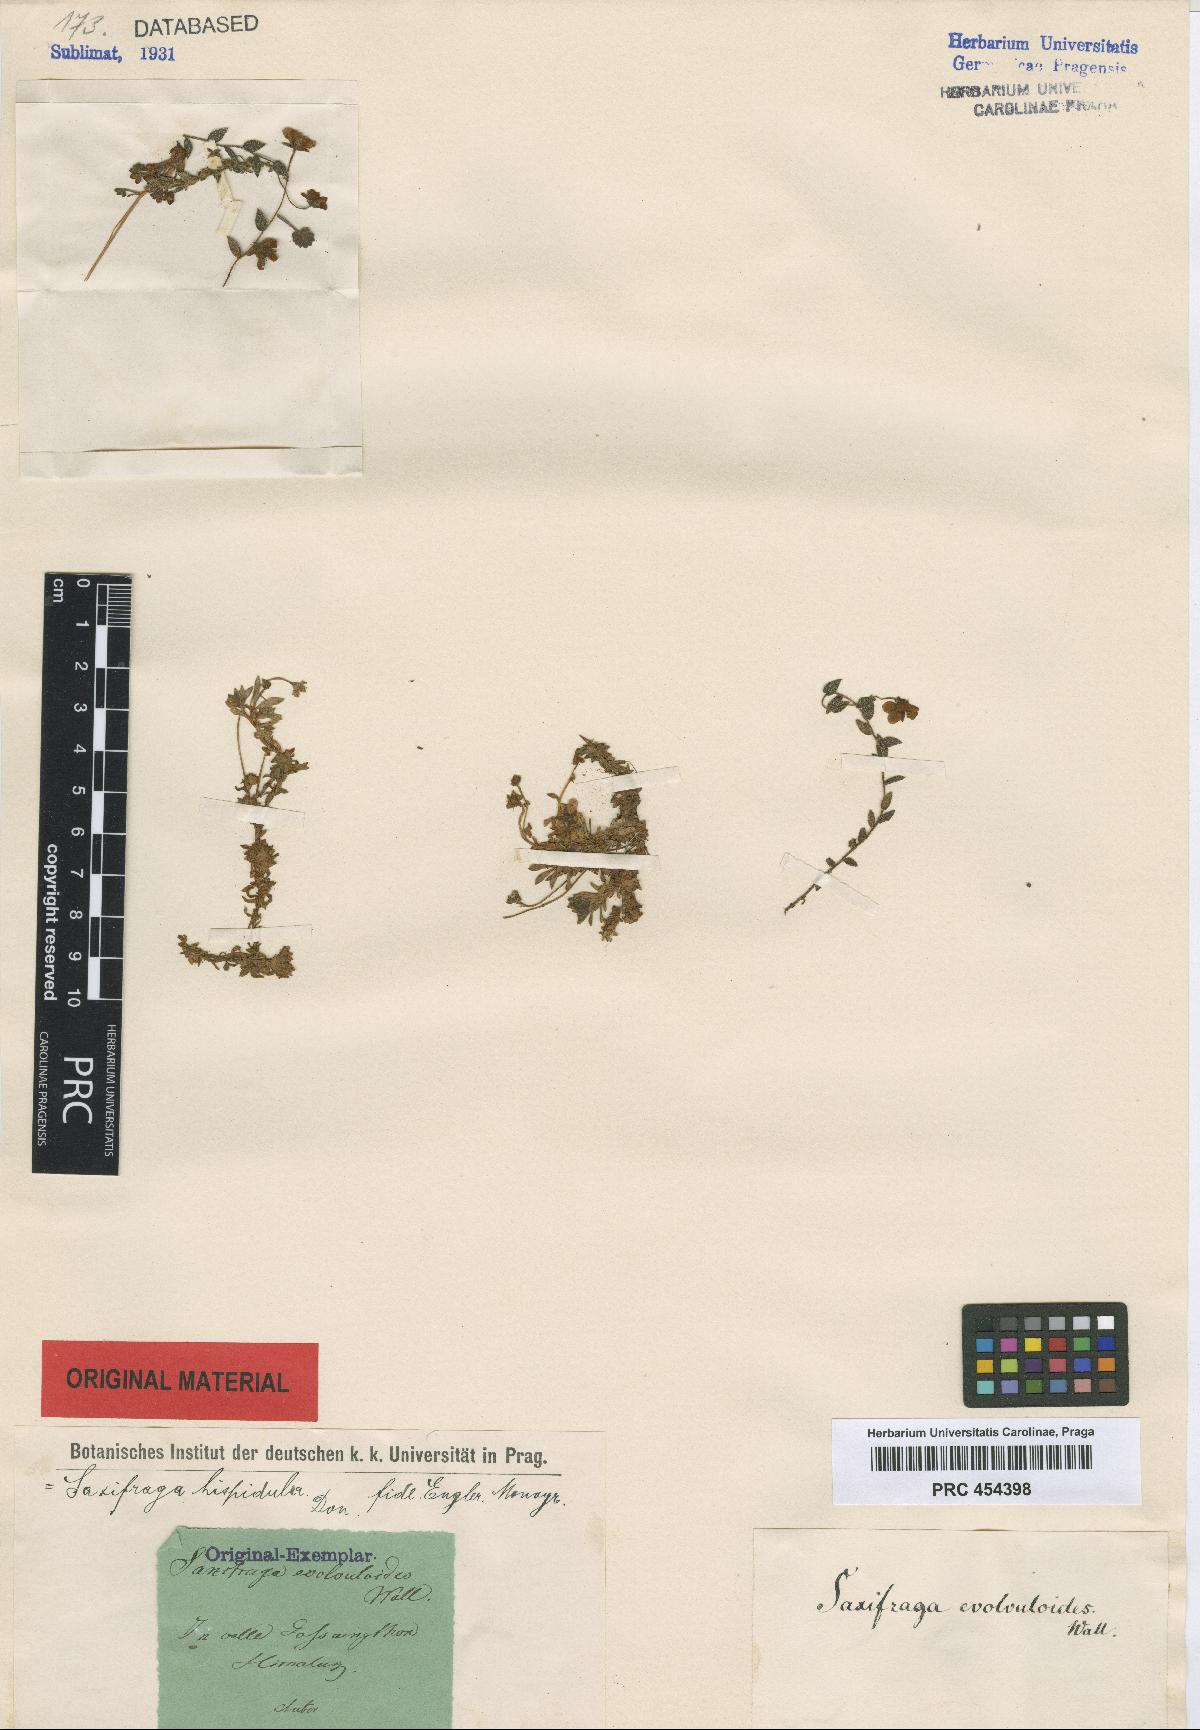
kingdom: Plantae
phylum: Tracheophyta
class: Magnoliopsida
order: Saxifragales
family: Saxifragaceae
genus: Saxifraga
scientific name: Saxifraga hispidula
